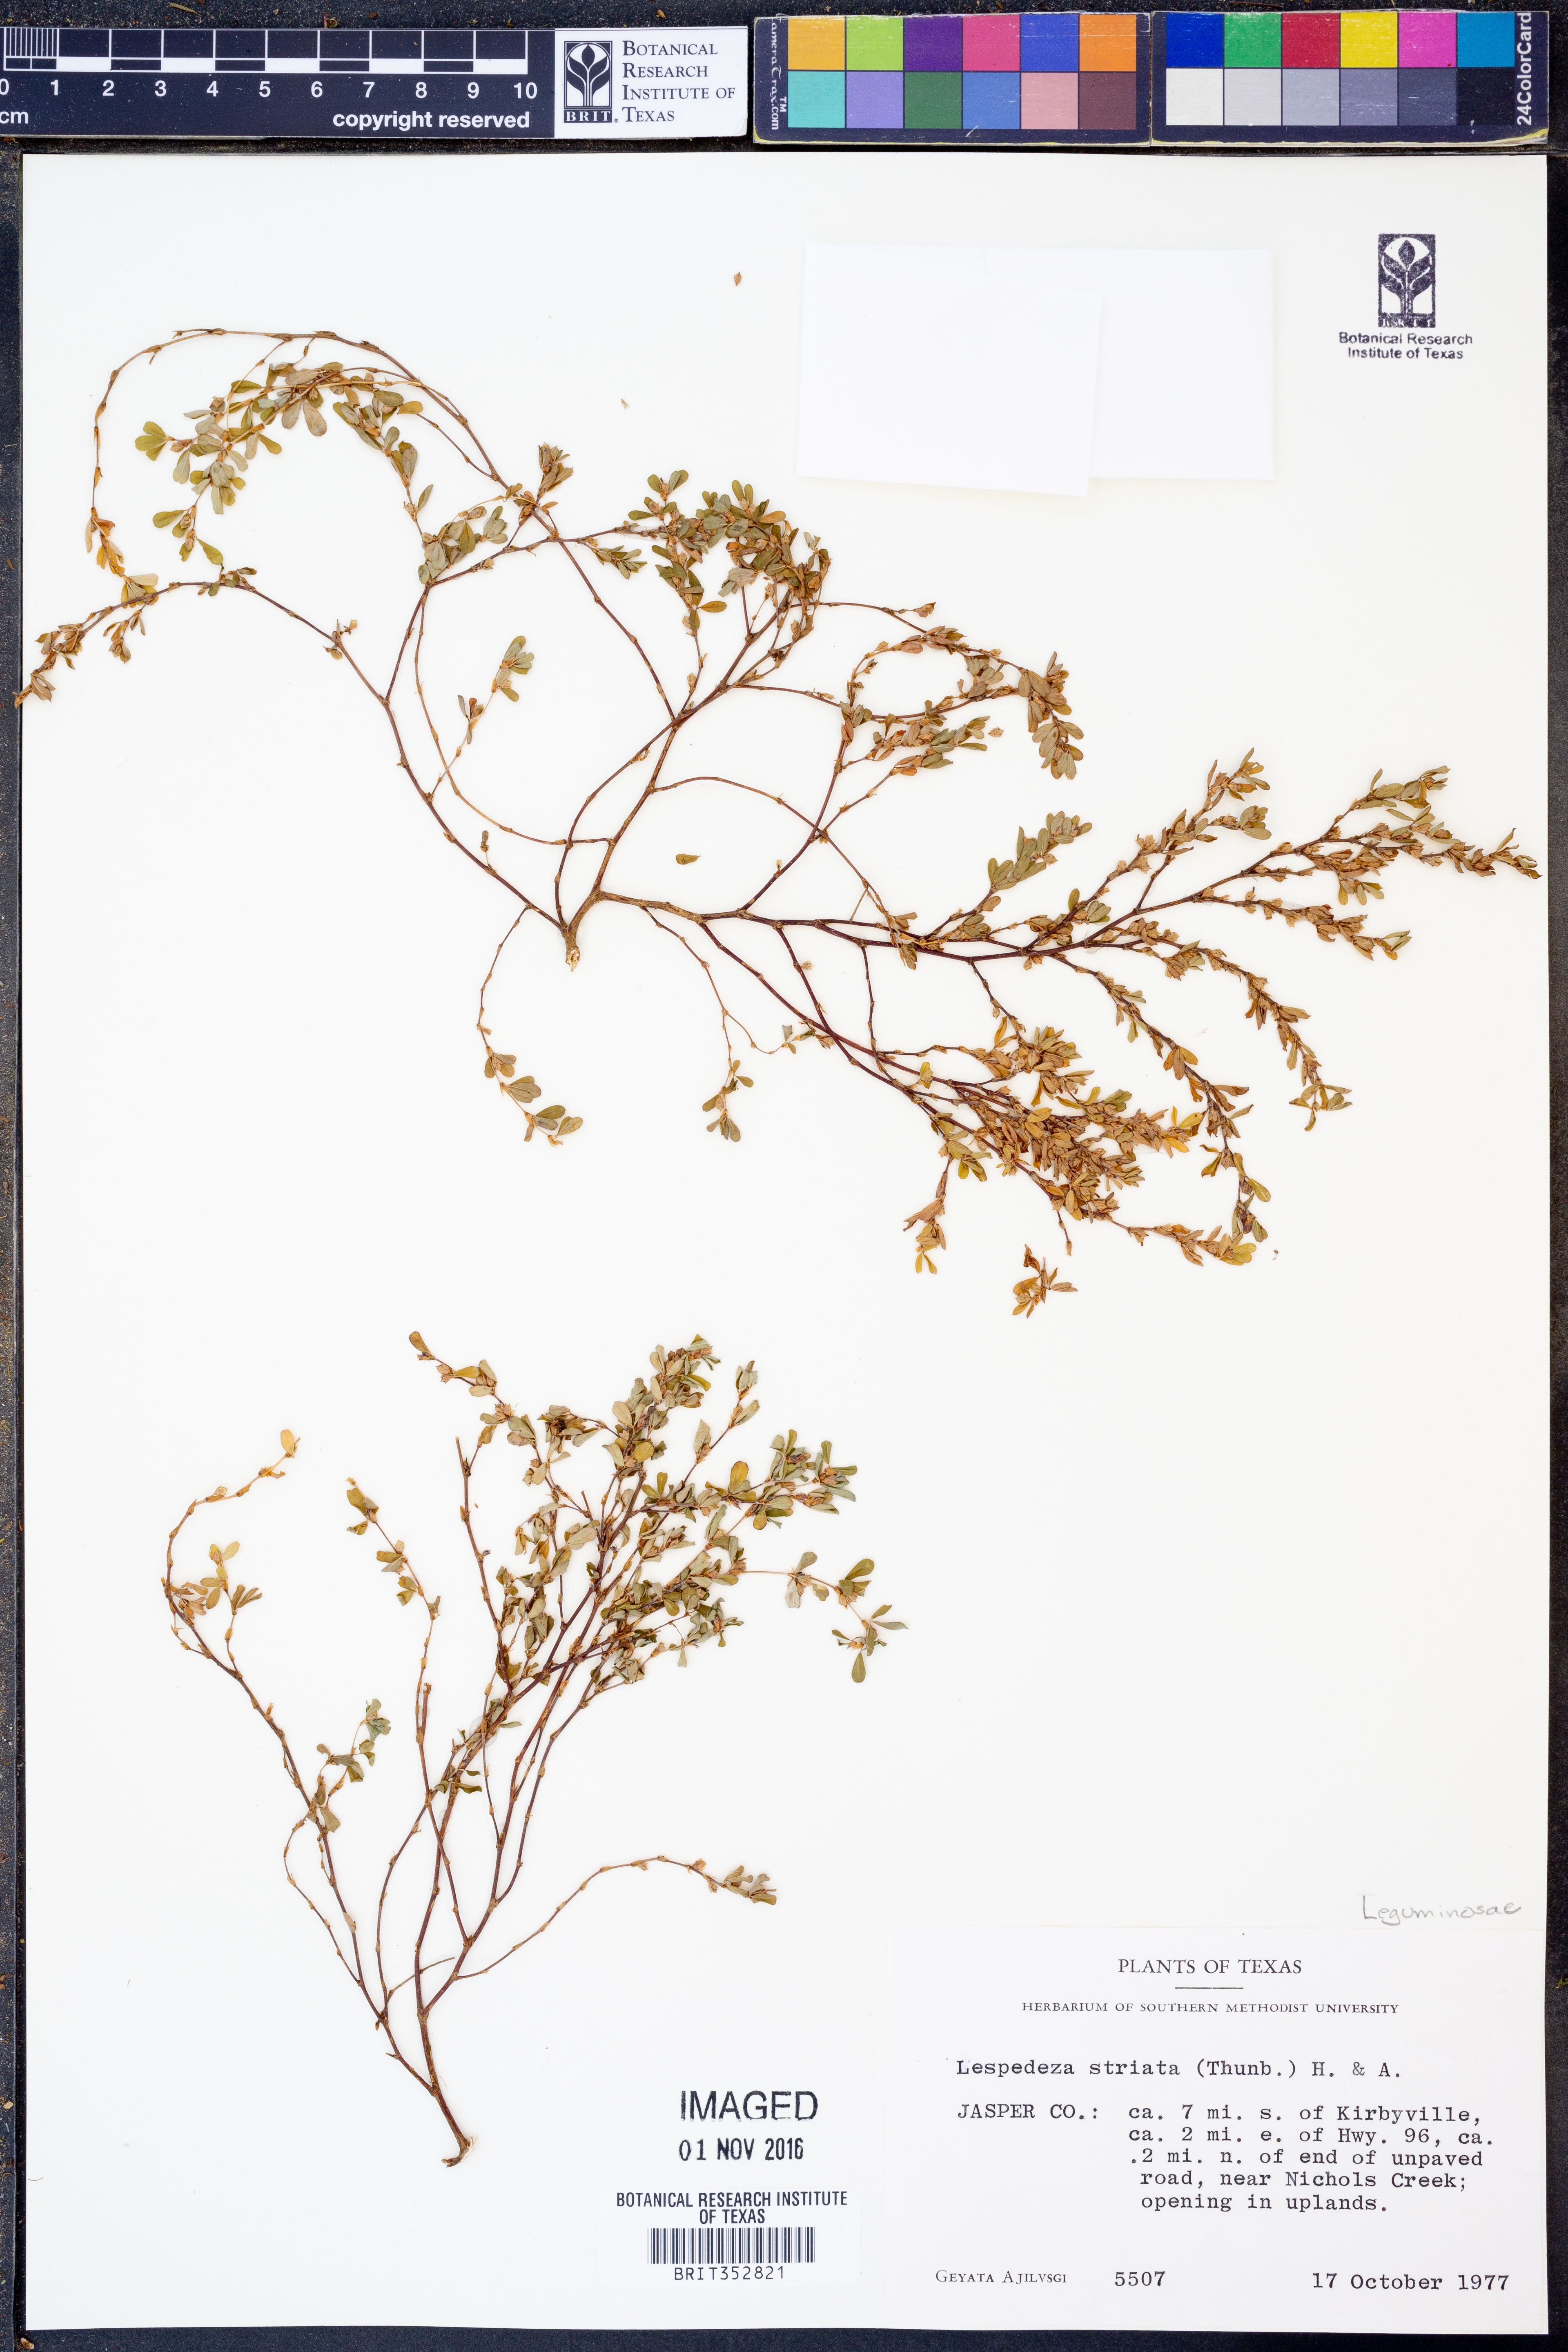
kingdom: Plantae
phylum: Tracheophyta
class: Magnoliopsida
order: Fabales
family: Fabaceae
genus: Kummerowia
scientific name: Kummerowia striata
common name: Japanese clover
